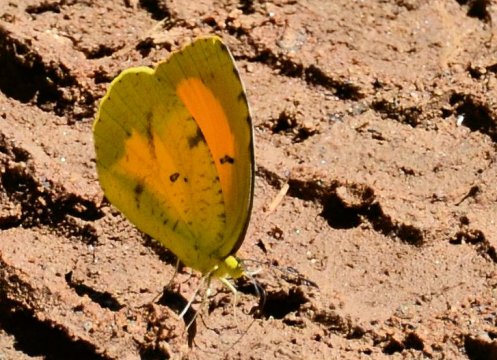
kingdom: Animalia
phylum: Arthropoda
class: Insecta
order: Lepidoptera
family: Pieridae
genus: Abaeis
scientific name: Abaeis nicippe
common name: Sleepy Orange
